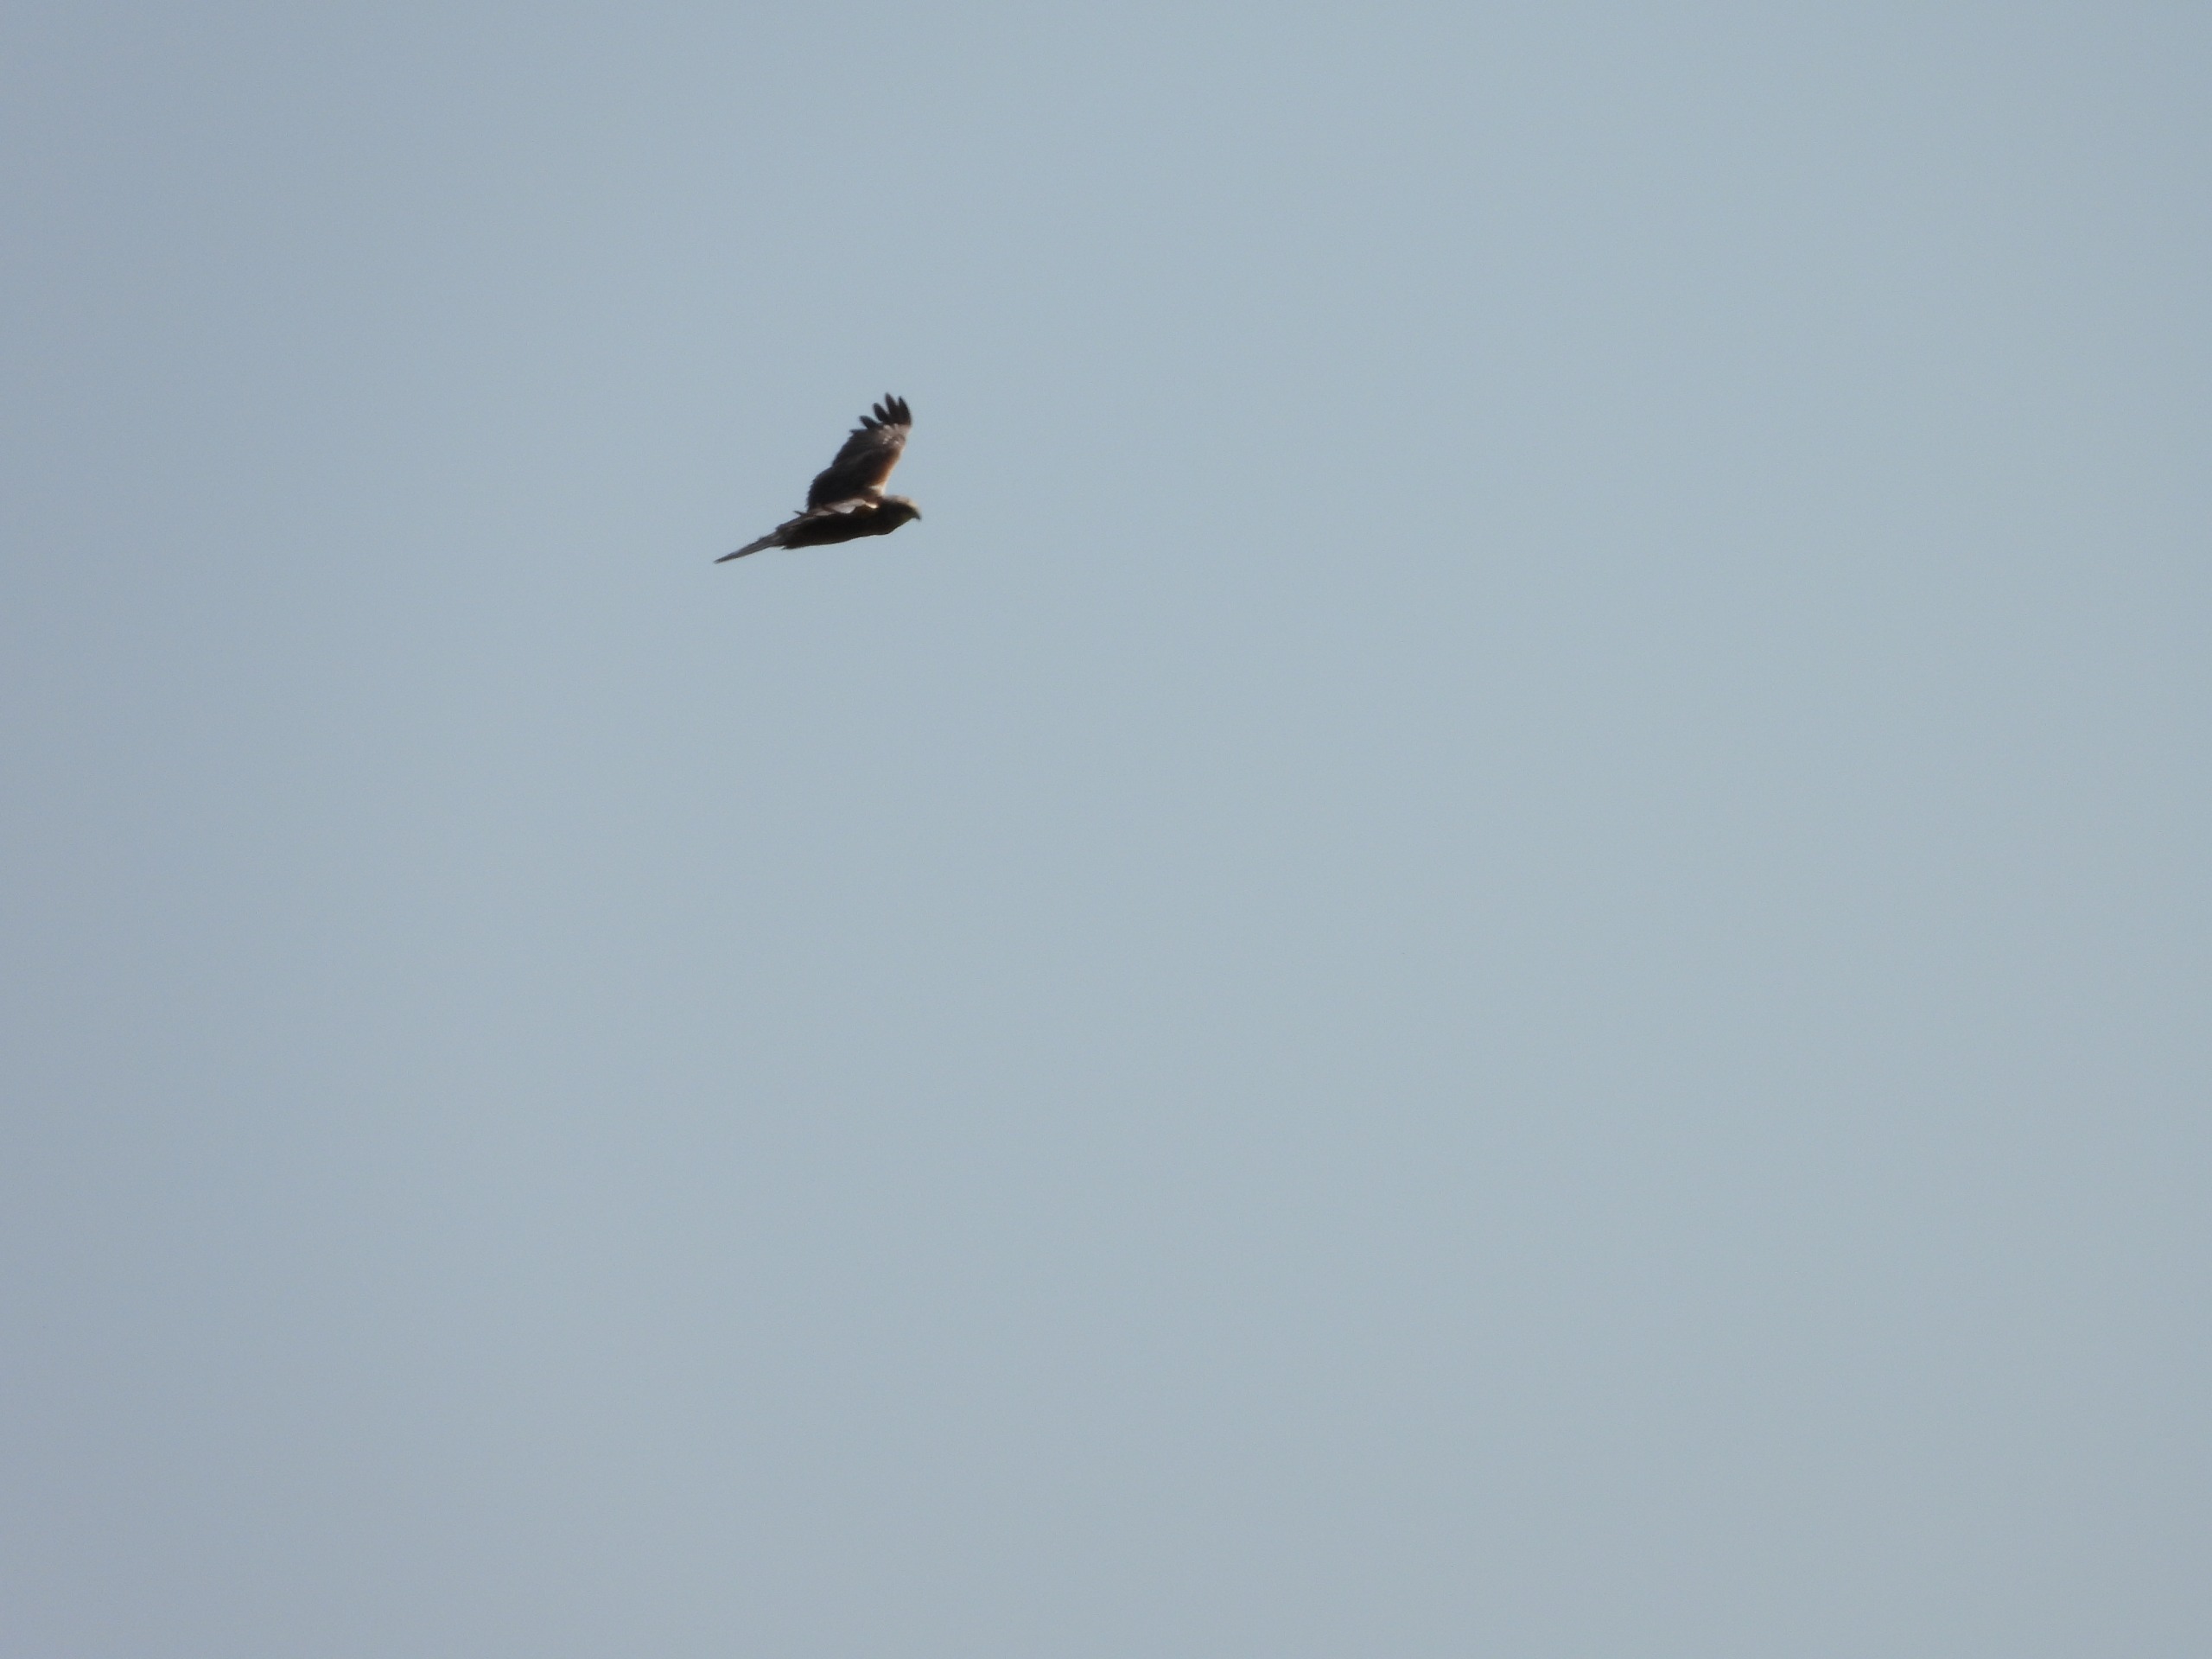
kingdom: Animalia
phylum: Chordata
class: Aves
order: Accipitriformes
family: Accipitridae
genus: Circus
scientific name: Circus aeruginosus
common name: Rørhøg
